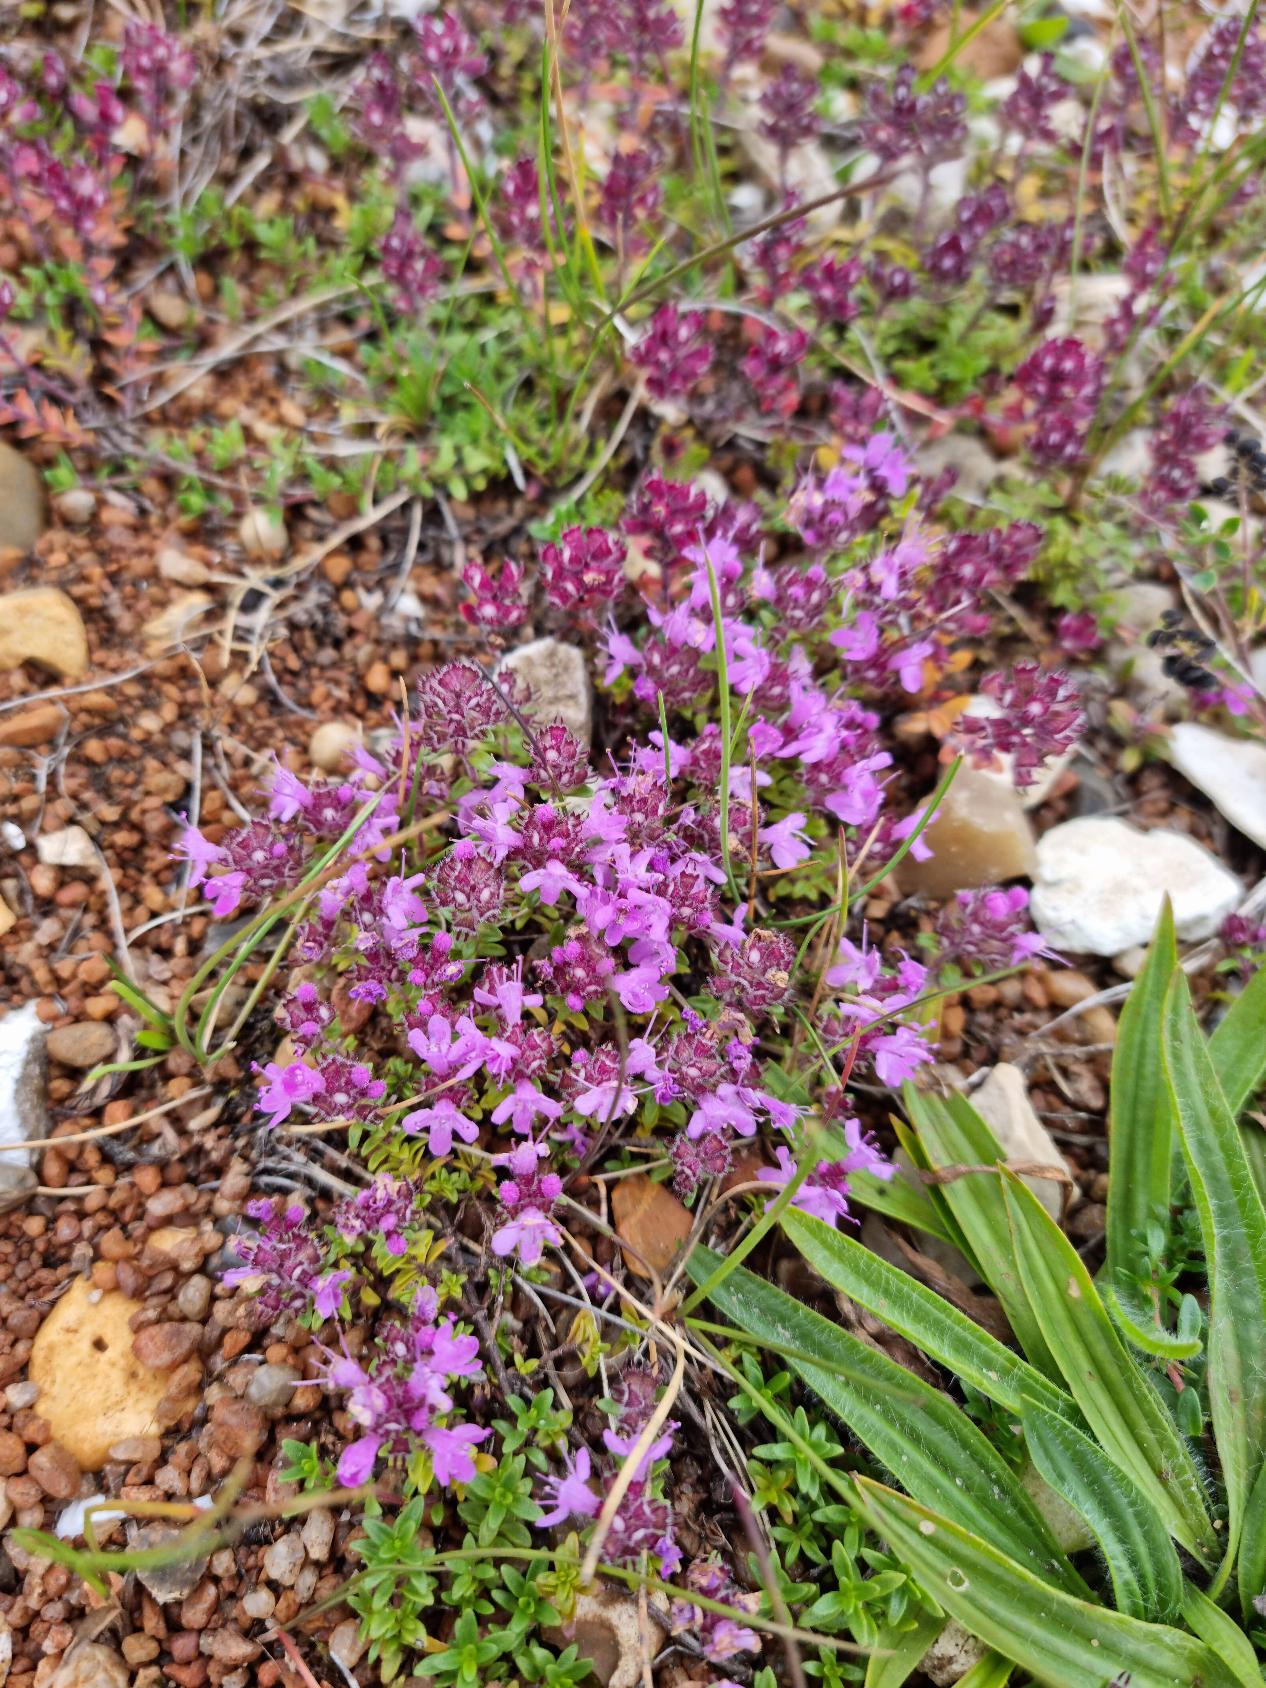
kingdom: Plantae
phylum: Tracheophyta
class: Magnoliopsida
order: Lamiales
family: Lamiaceae
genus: Thymus
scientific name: Thymus serpyllum
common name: Smalbladet timian
